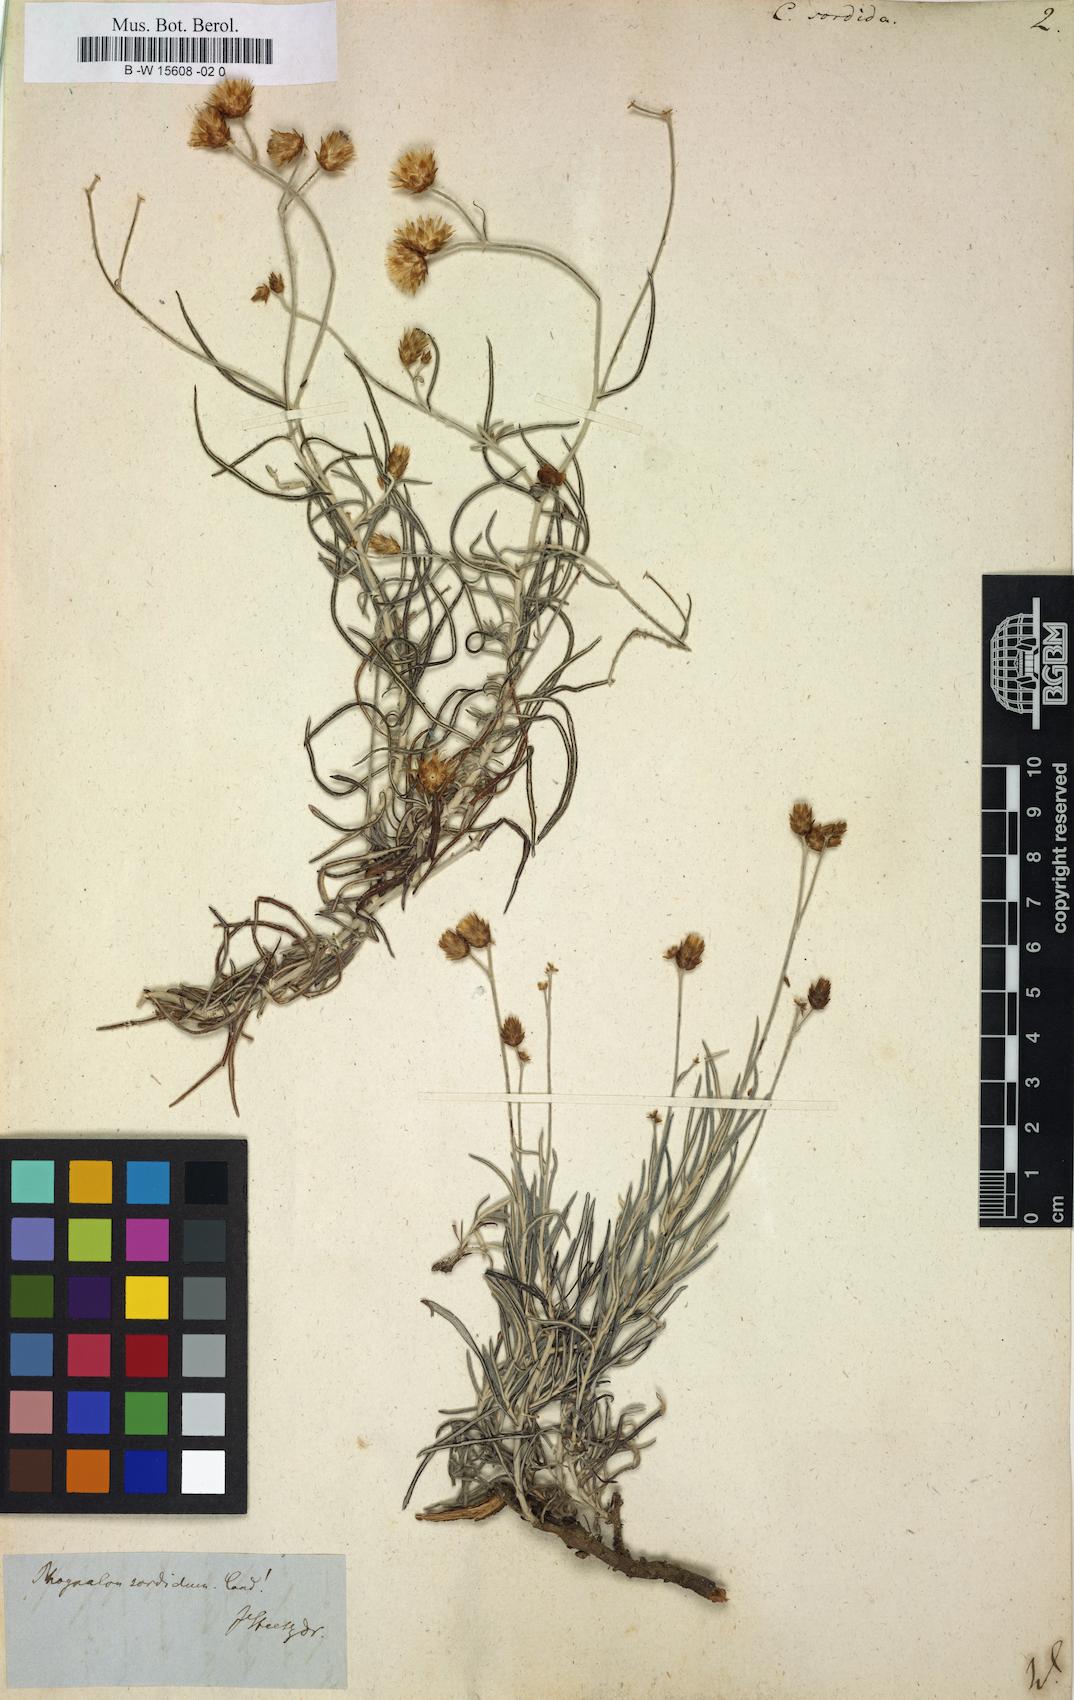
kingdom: Plantae
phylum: Tracheophyta
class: Magnoliopsida
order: Asterales
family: Asteraceae
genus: Phagnalon
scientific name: Phagnalon sordidum
